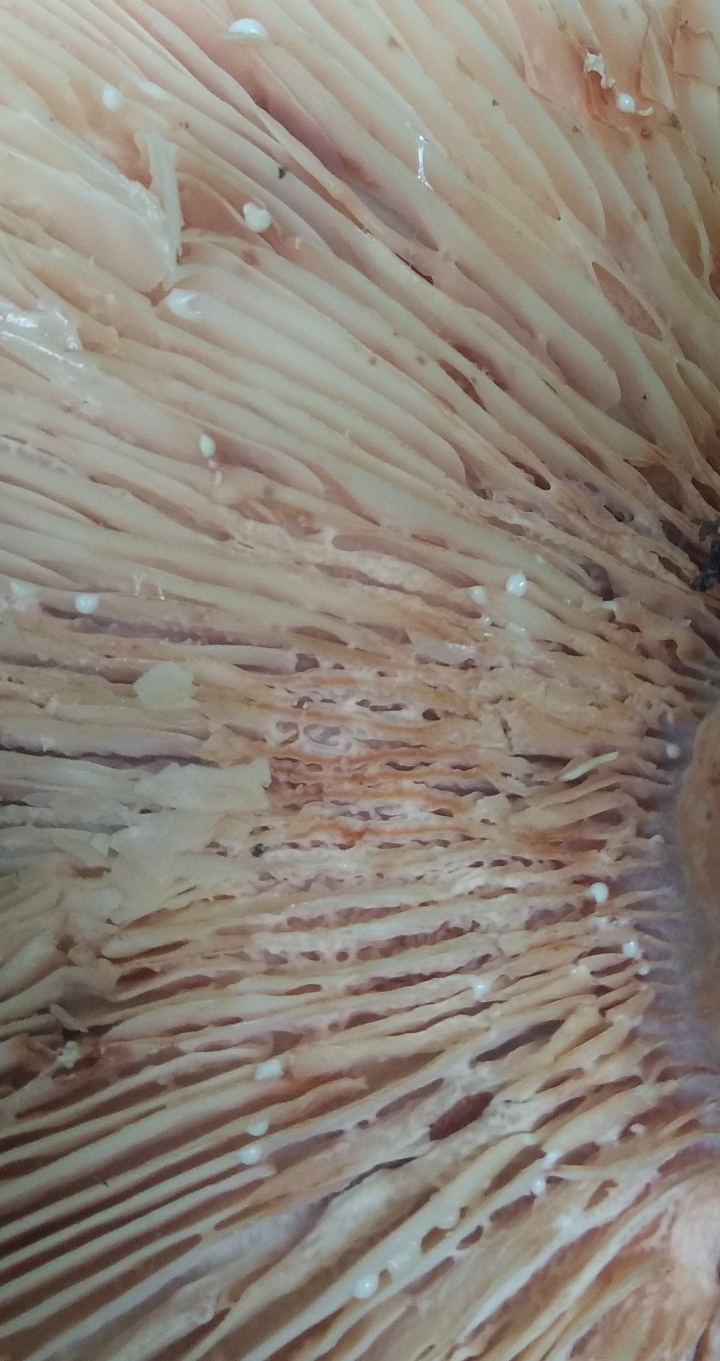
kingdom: Fungi
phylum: Basidiomycota
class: Agaricomycetes
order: Russulales
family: Russulaceae
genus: Lactarius
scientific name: Lactarius acerrimus
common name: brændende mælkehat
